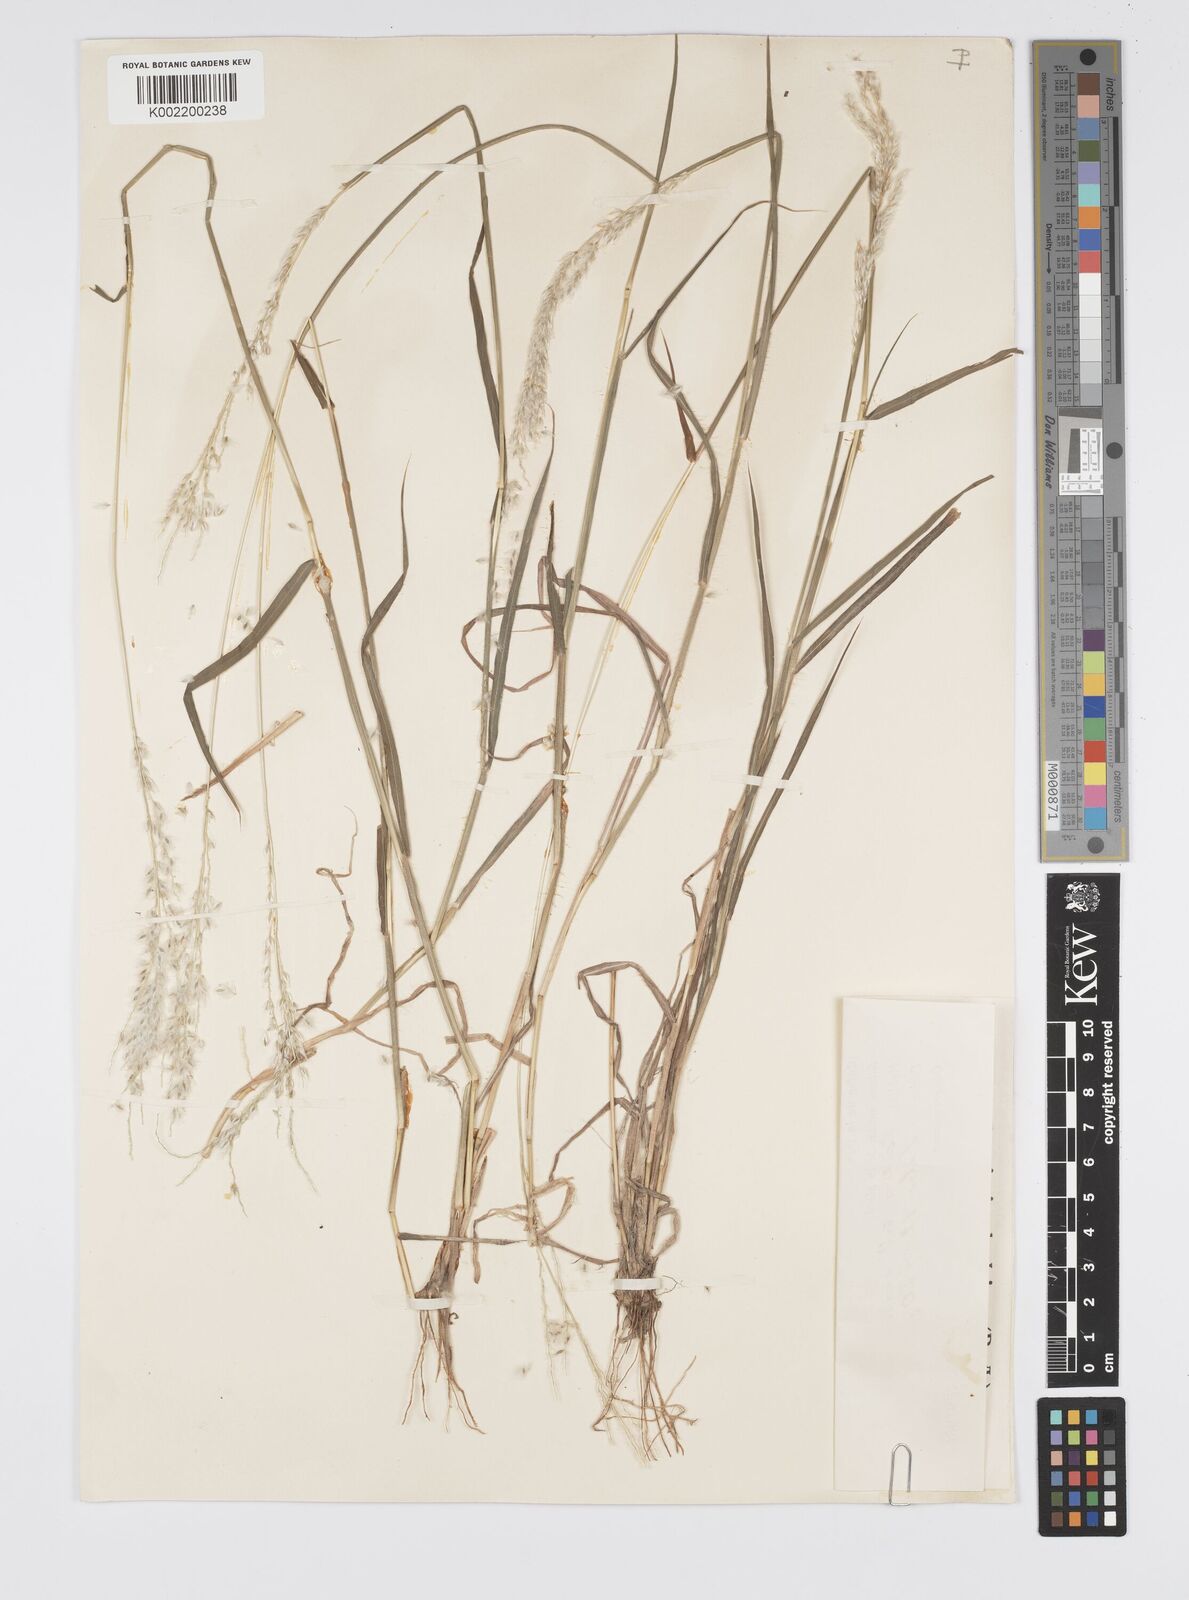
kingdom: Plantae
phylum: Tracheophyta
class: Liliopsida
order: Poales
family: Poaceae
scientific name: Poaceae
